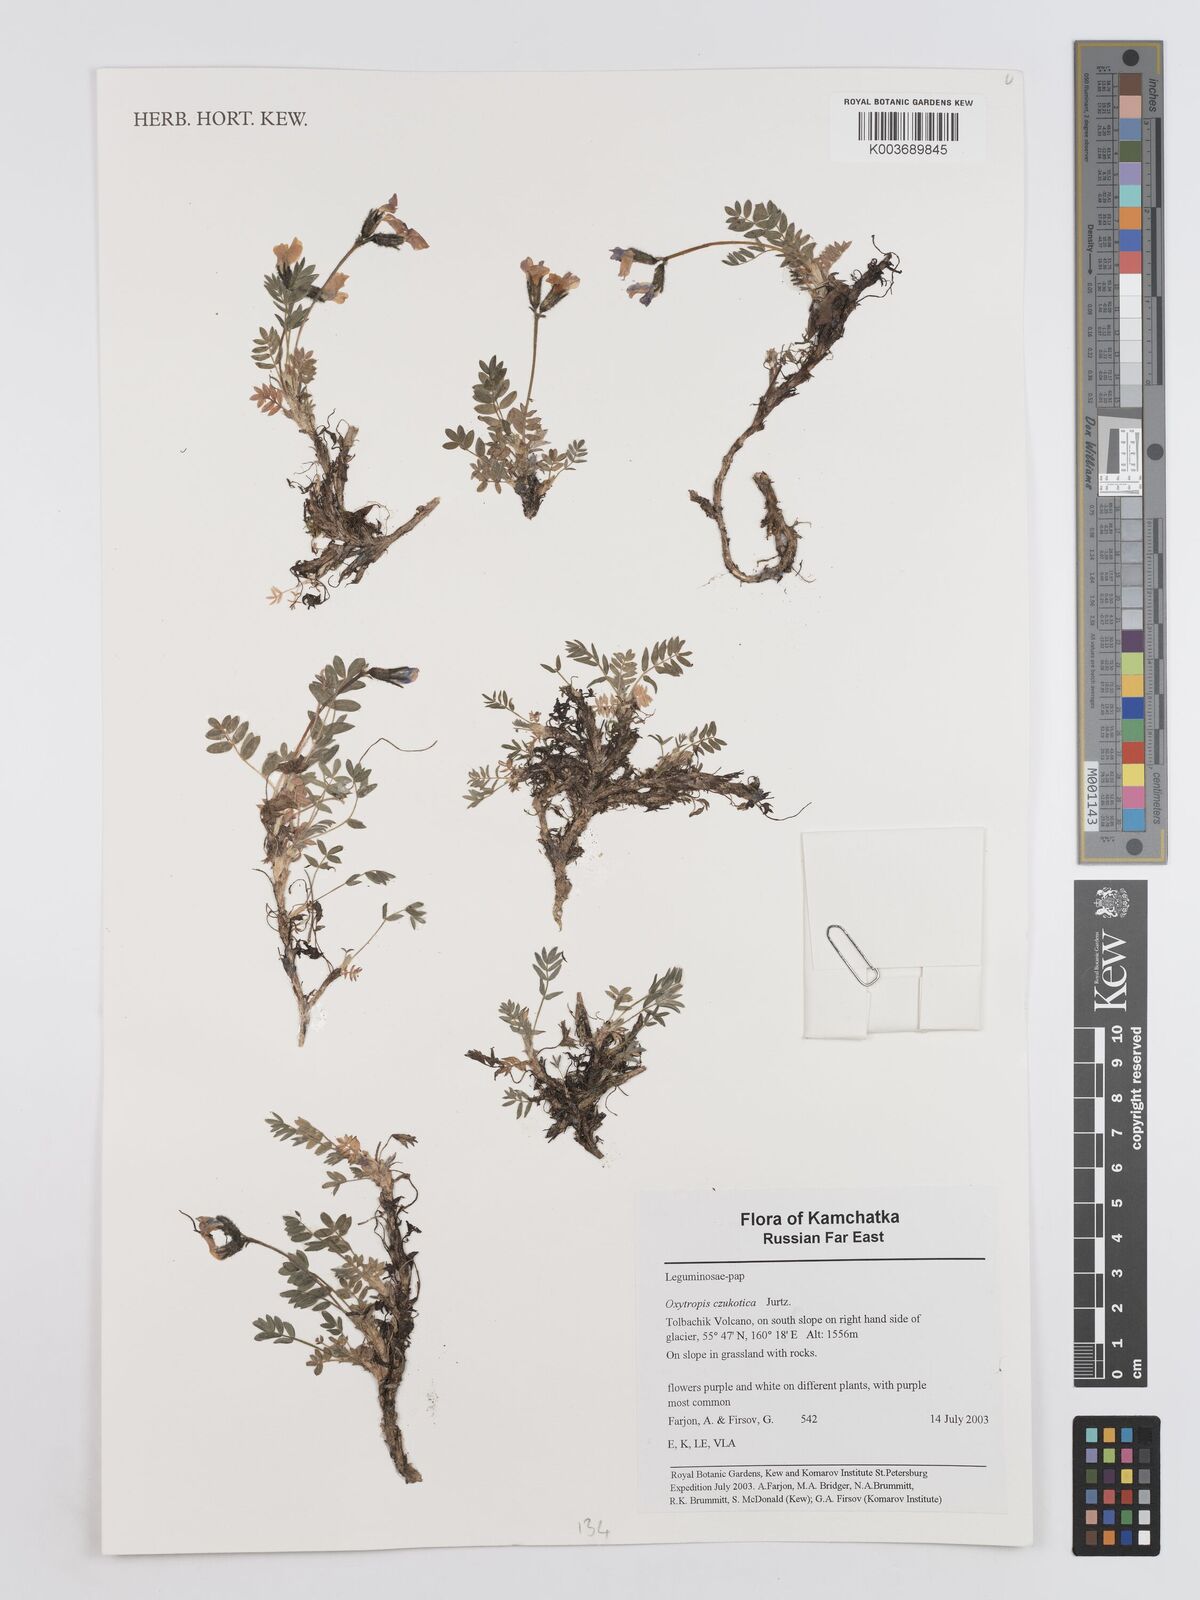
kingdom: Plantae
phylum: Tracheophyta
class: Magnoliopsida
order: Fabales
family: Fabaceae
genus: Oxytropis
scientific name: Oxytropis czukotica
